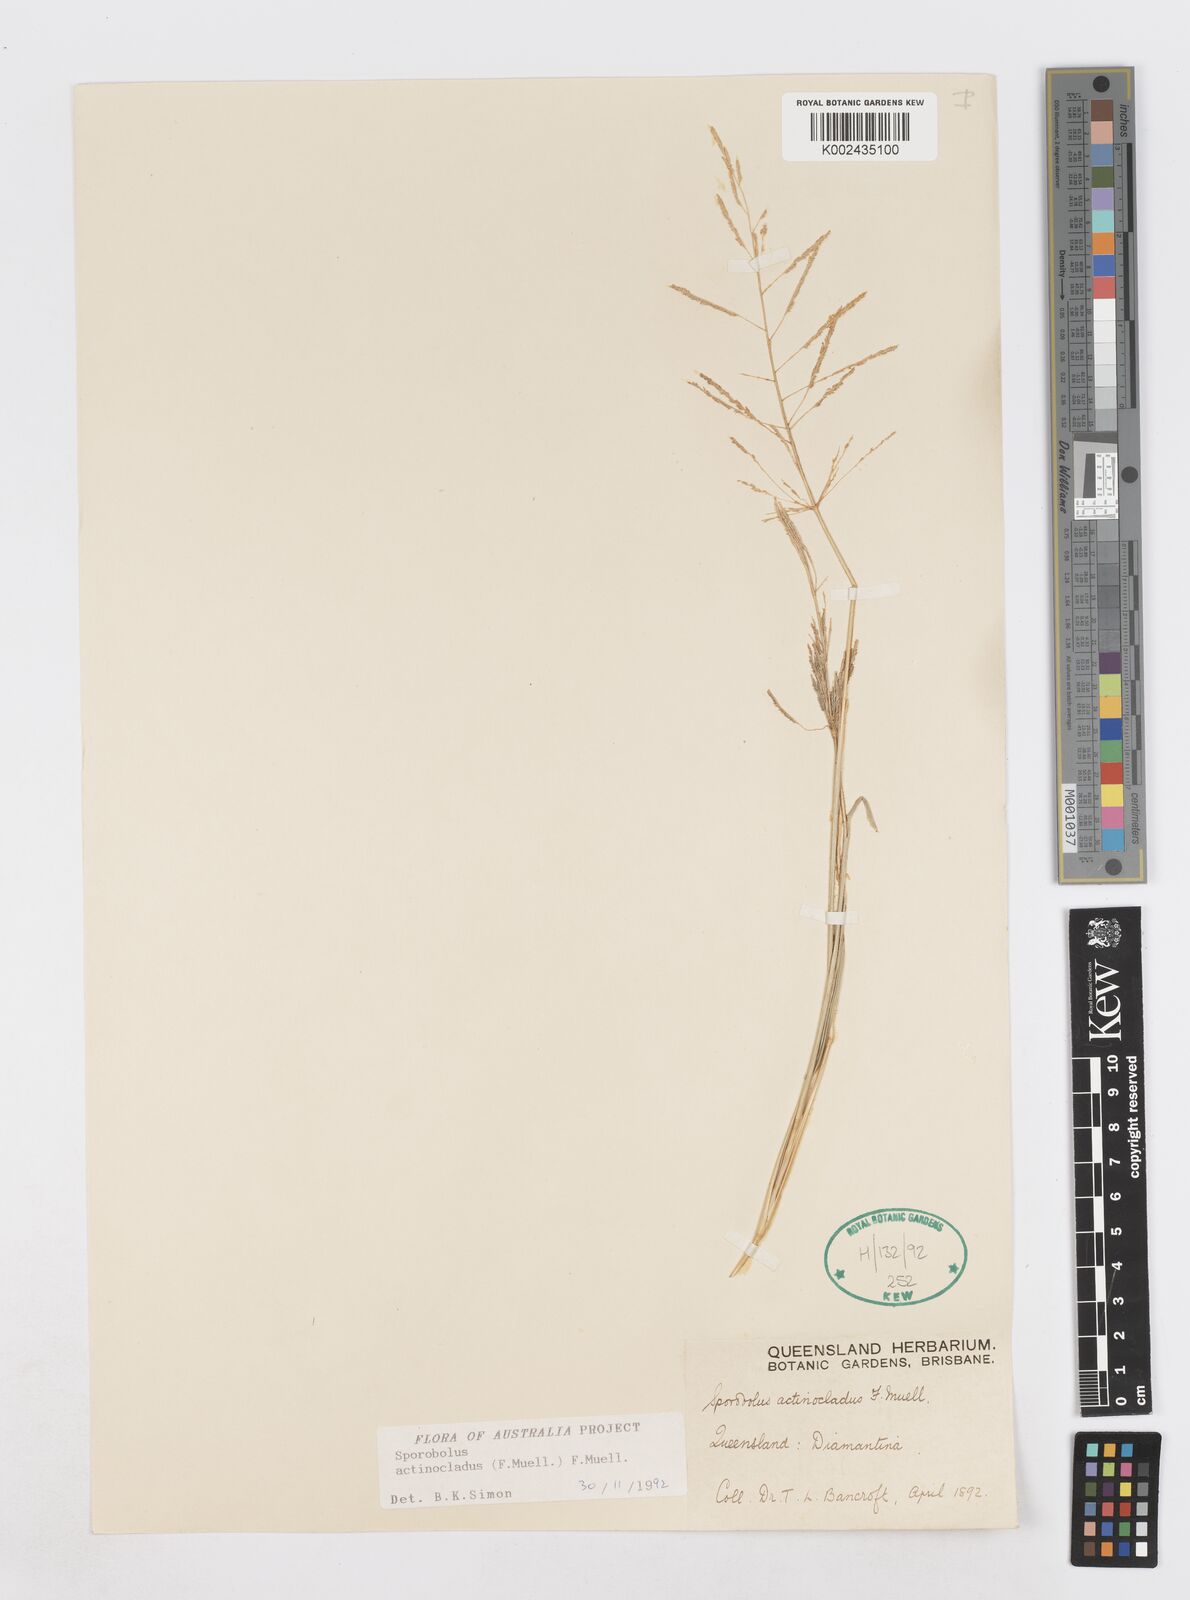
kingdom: Plantae
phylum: Tracheophyta
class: Liliopsida
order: Poales
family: Poaceae
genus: Sporobolus
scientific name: Sporobolus actinocladus
